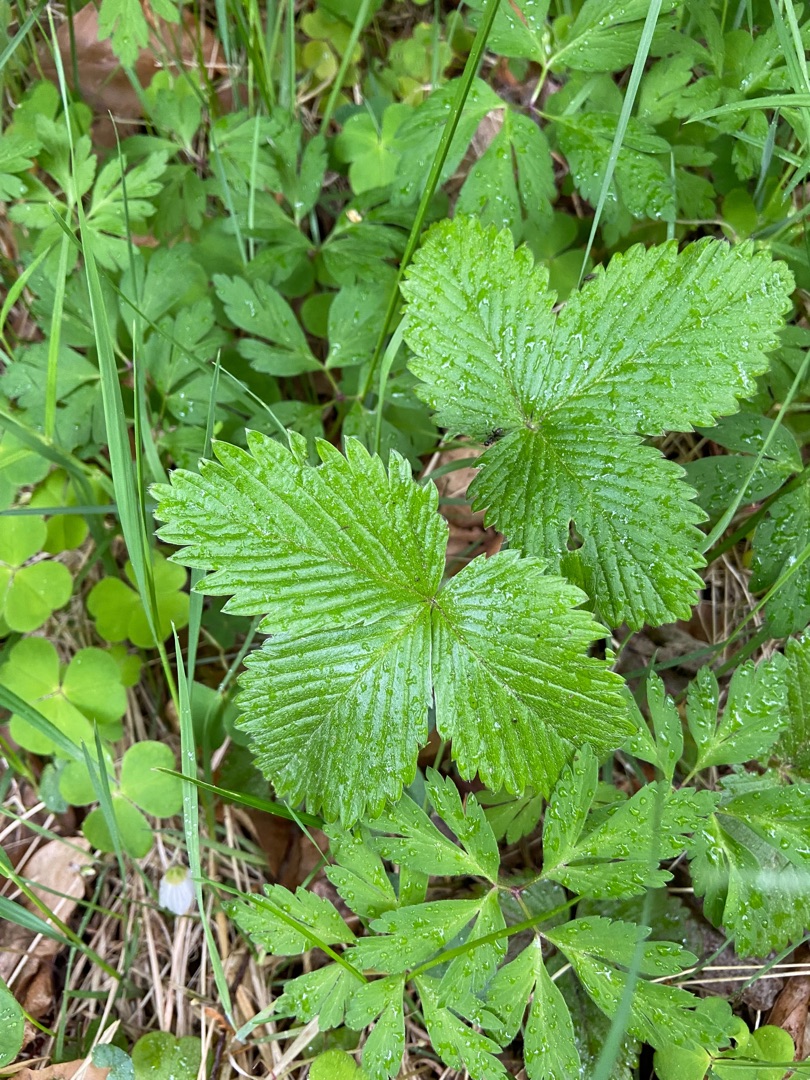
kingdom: Plantae
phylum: Tracheophyta
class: Magnoliopsida
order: Rosales
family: Rosaceae
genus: Fragaria
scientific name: Fragaria vesca
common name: Skov-jordbær
